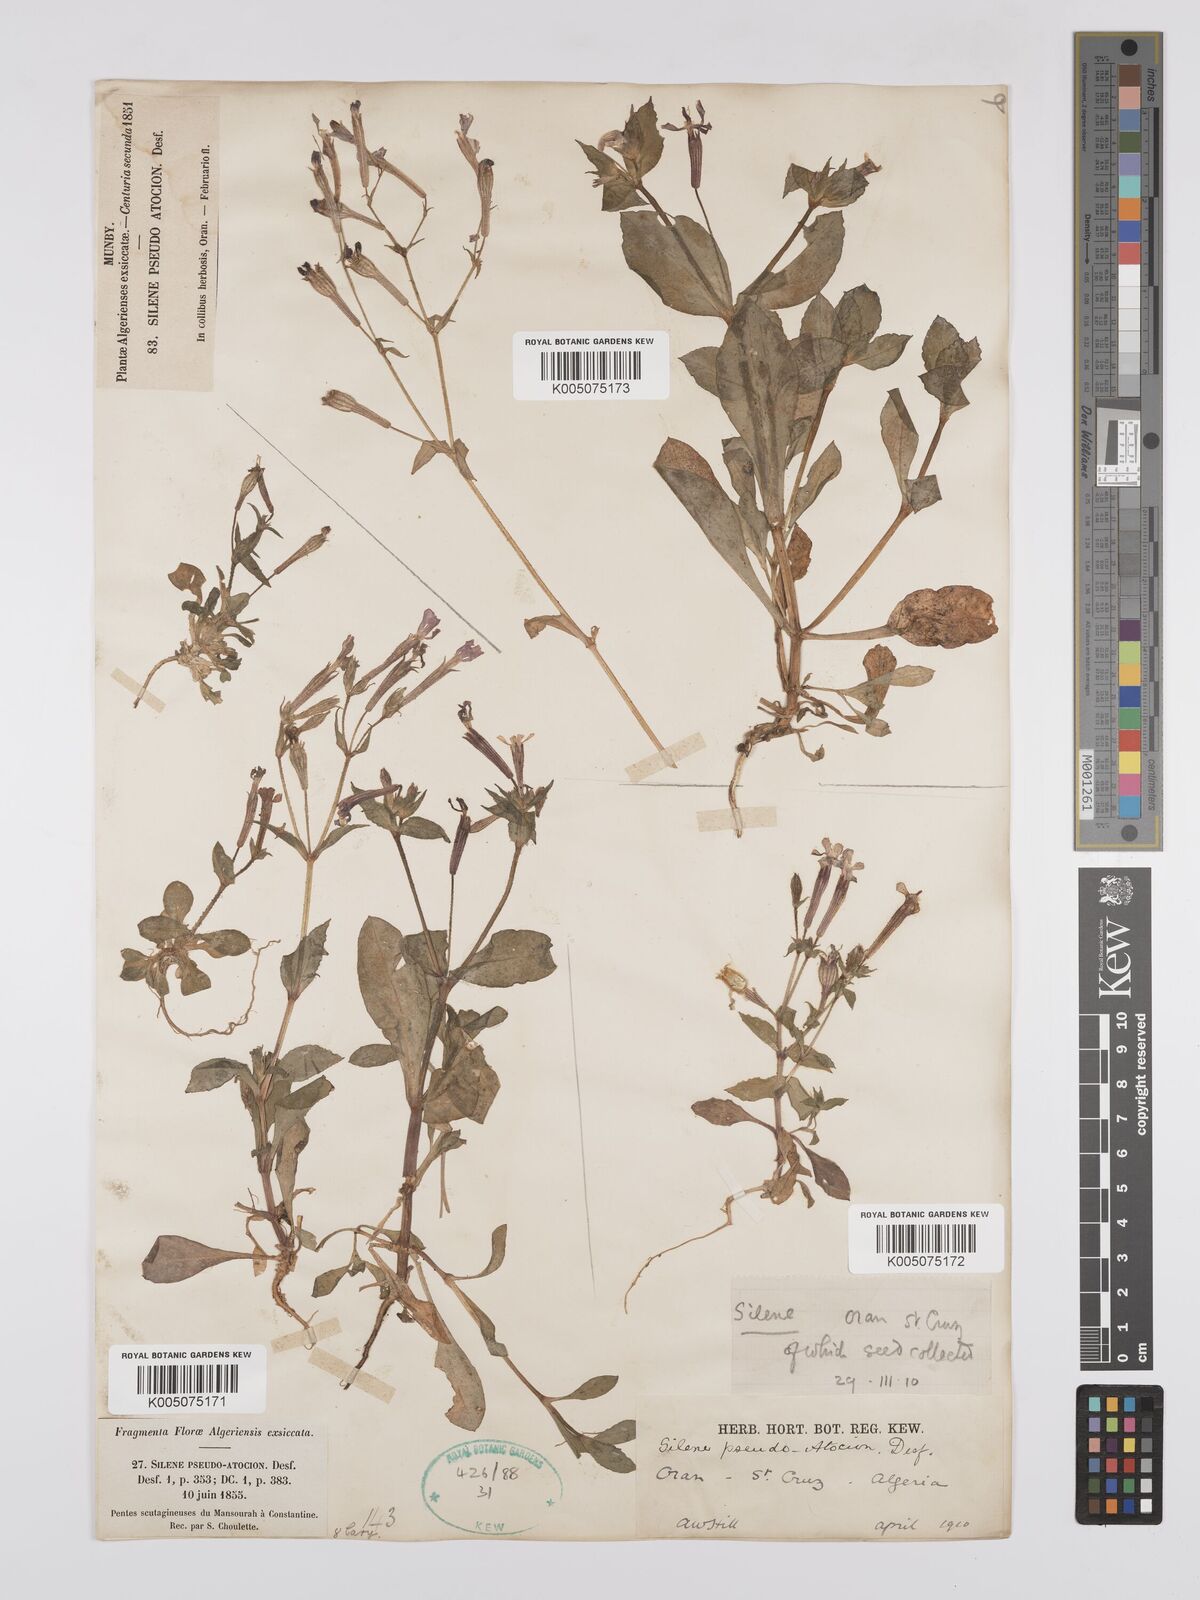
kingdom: Plantae
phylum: Tracheophyta
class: Magnoliopsida
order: Caryophyllales
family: Caryophyllaceae
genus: Silene
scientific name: Silene pseudoatocion
